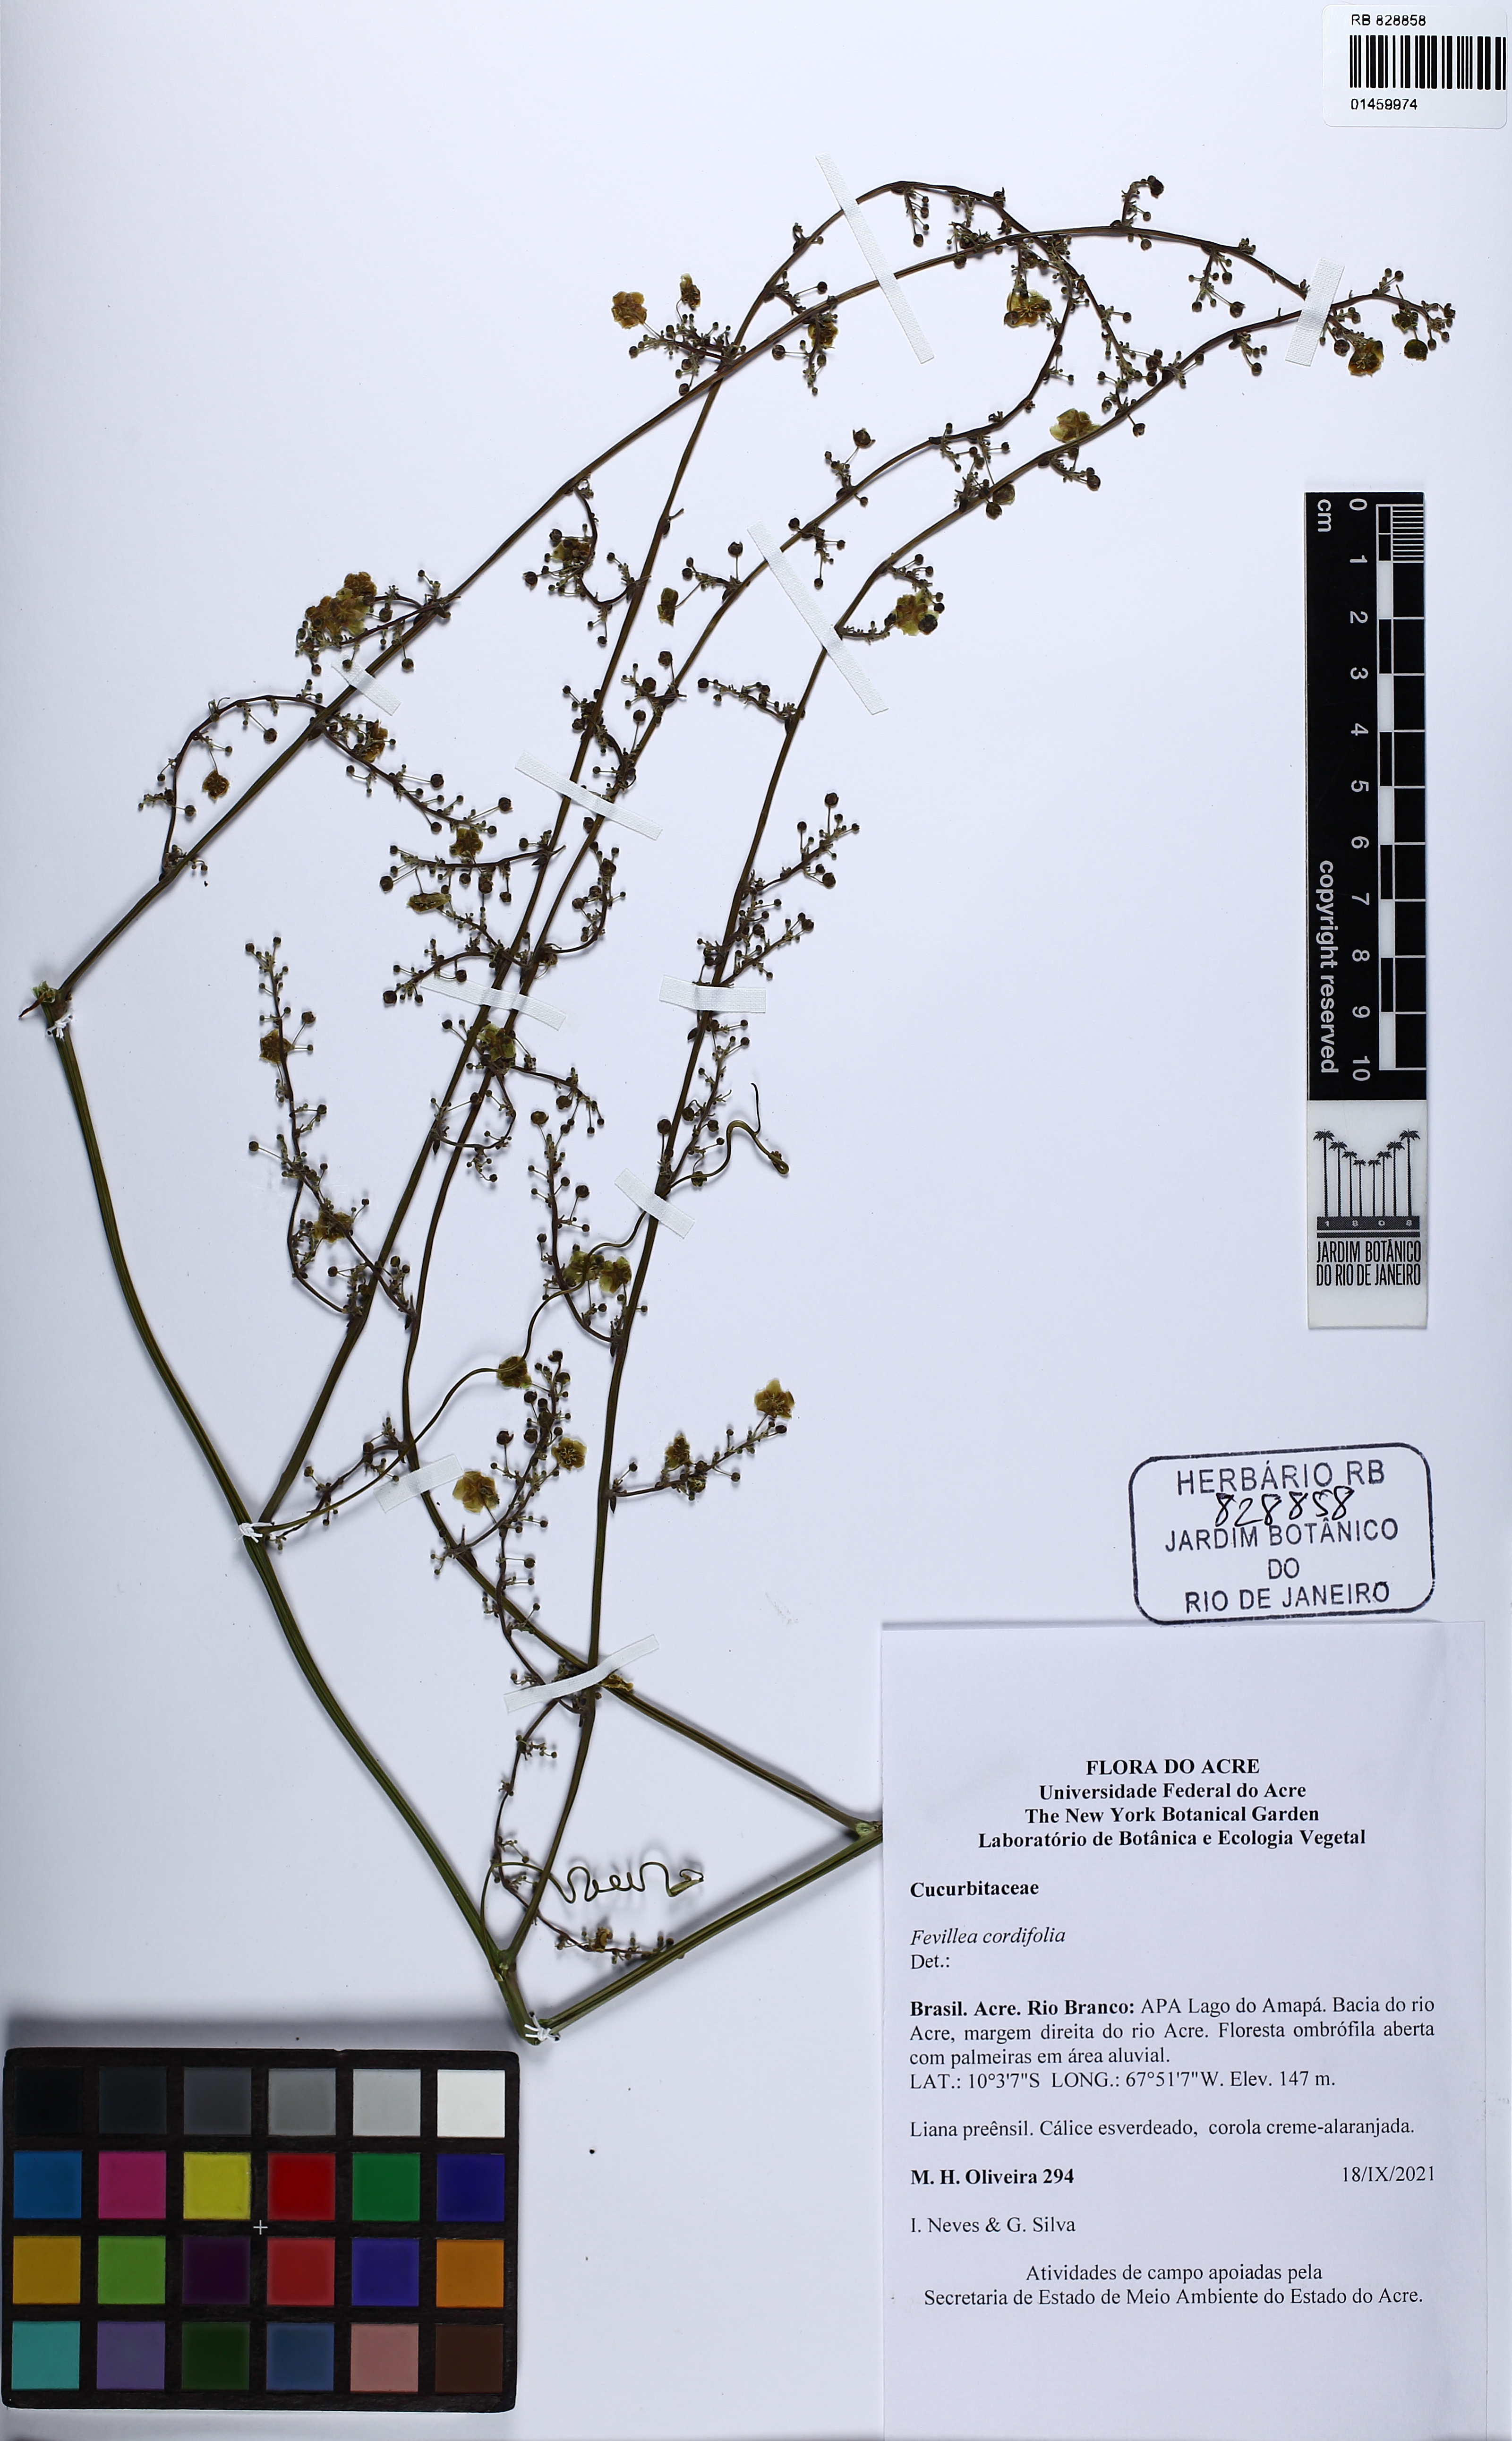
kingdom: Plantae
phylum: Tracheophyta
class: Magnoliopsida
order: Cucurbitales
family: Cucurbitaceae
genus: Fevillea
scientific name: Fevillea cordifolia
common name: Antidote-vine
